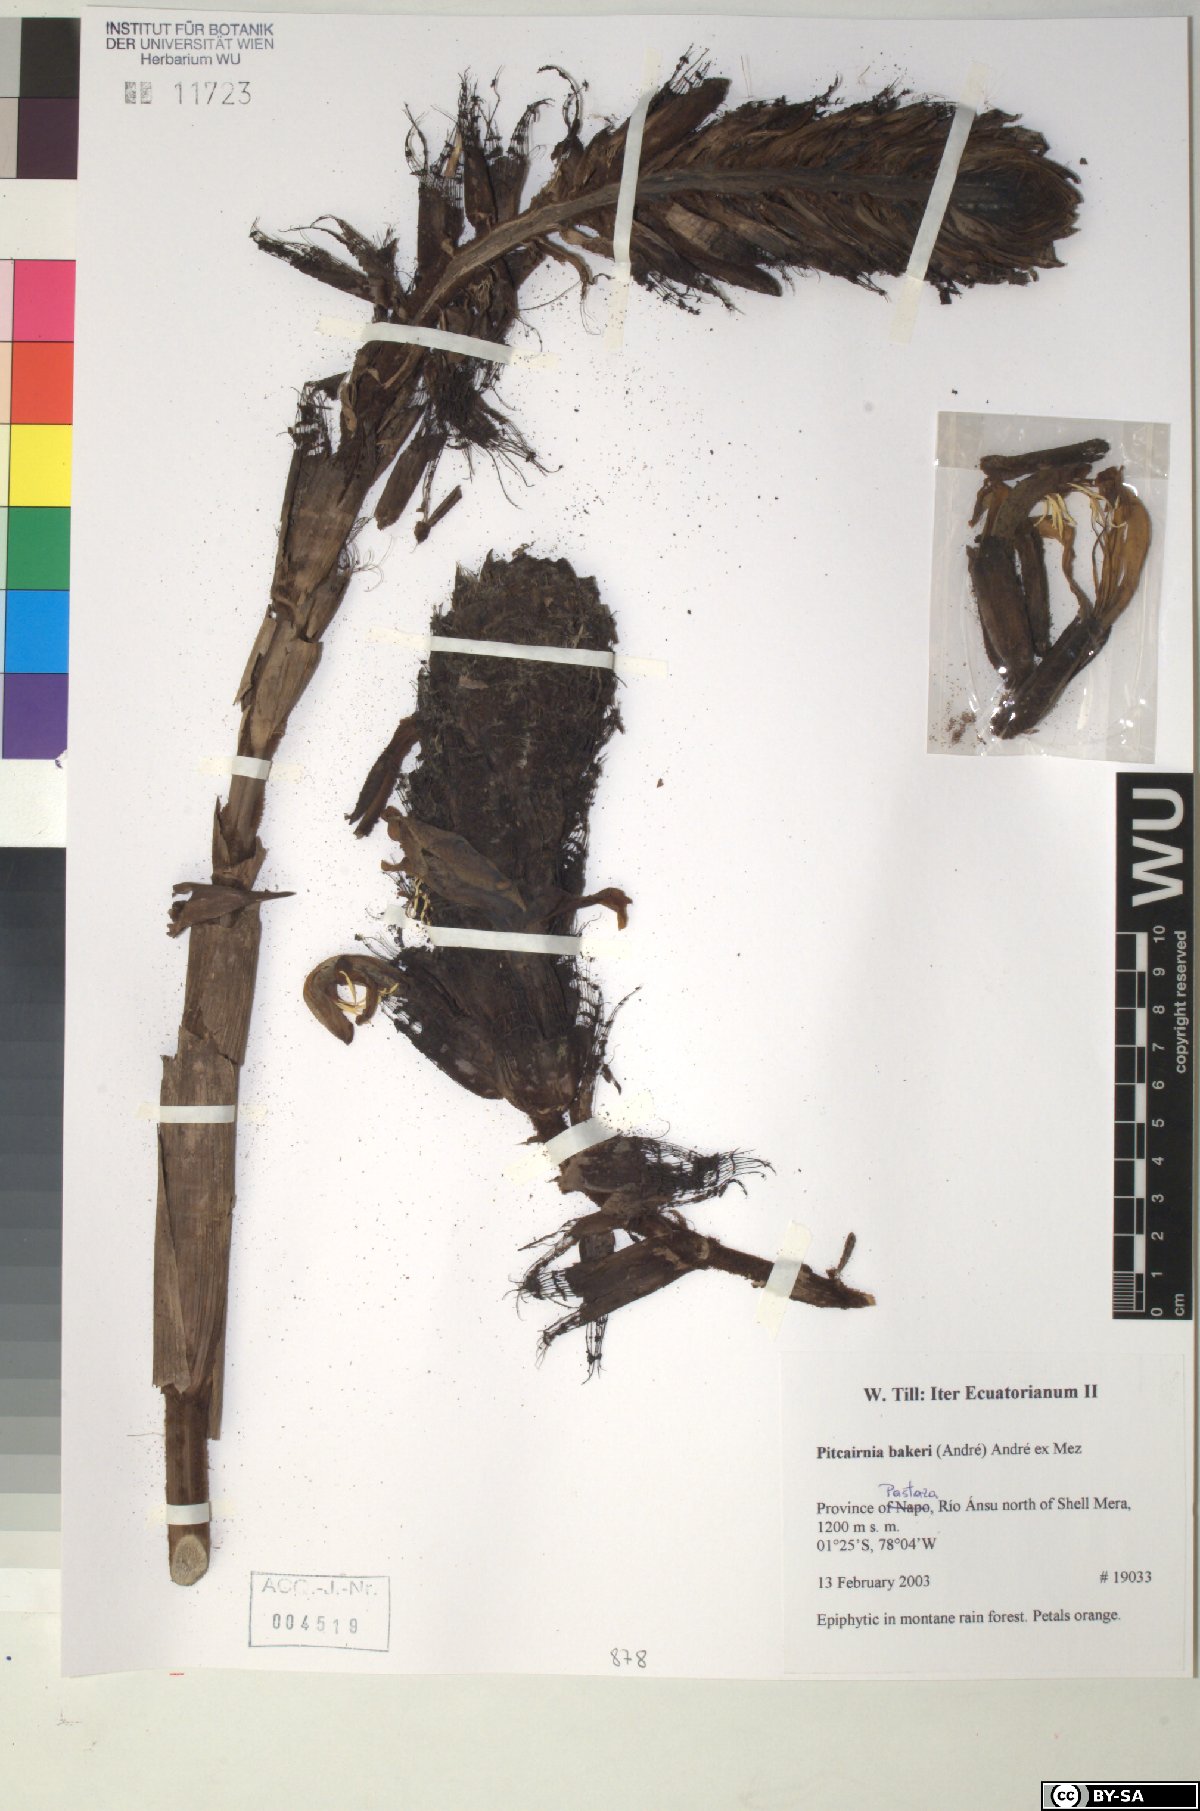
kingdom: Plantae
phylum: Tracheophyta
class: Liliopsida
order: Poales
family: Bromeliaceae
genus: Pitcairnia
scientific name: Pitcairnia bakeri
